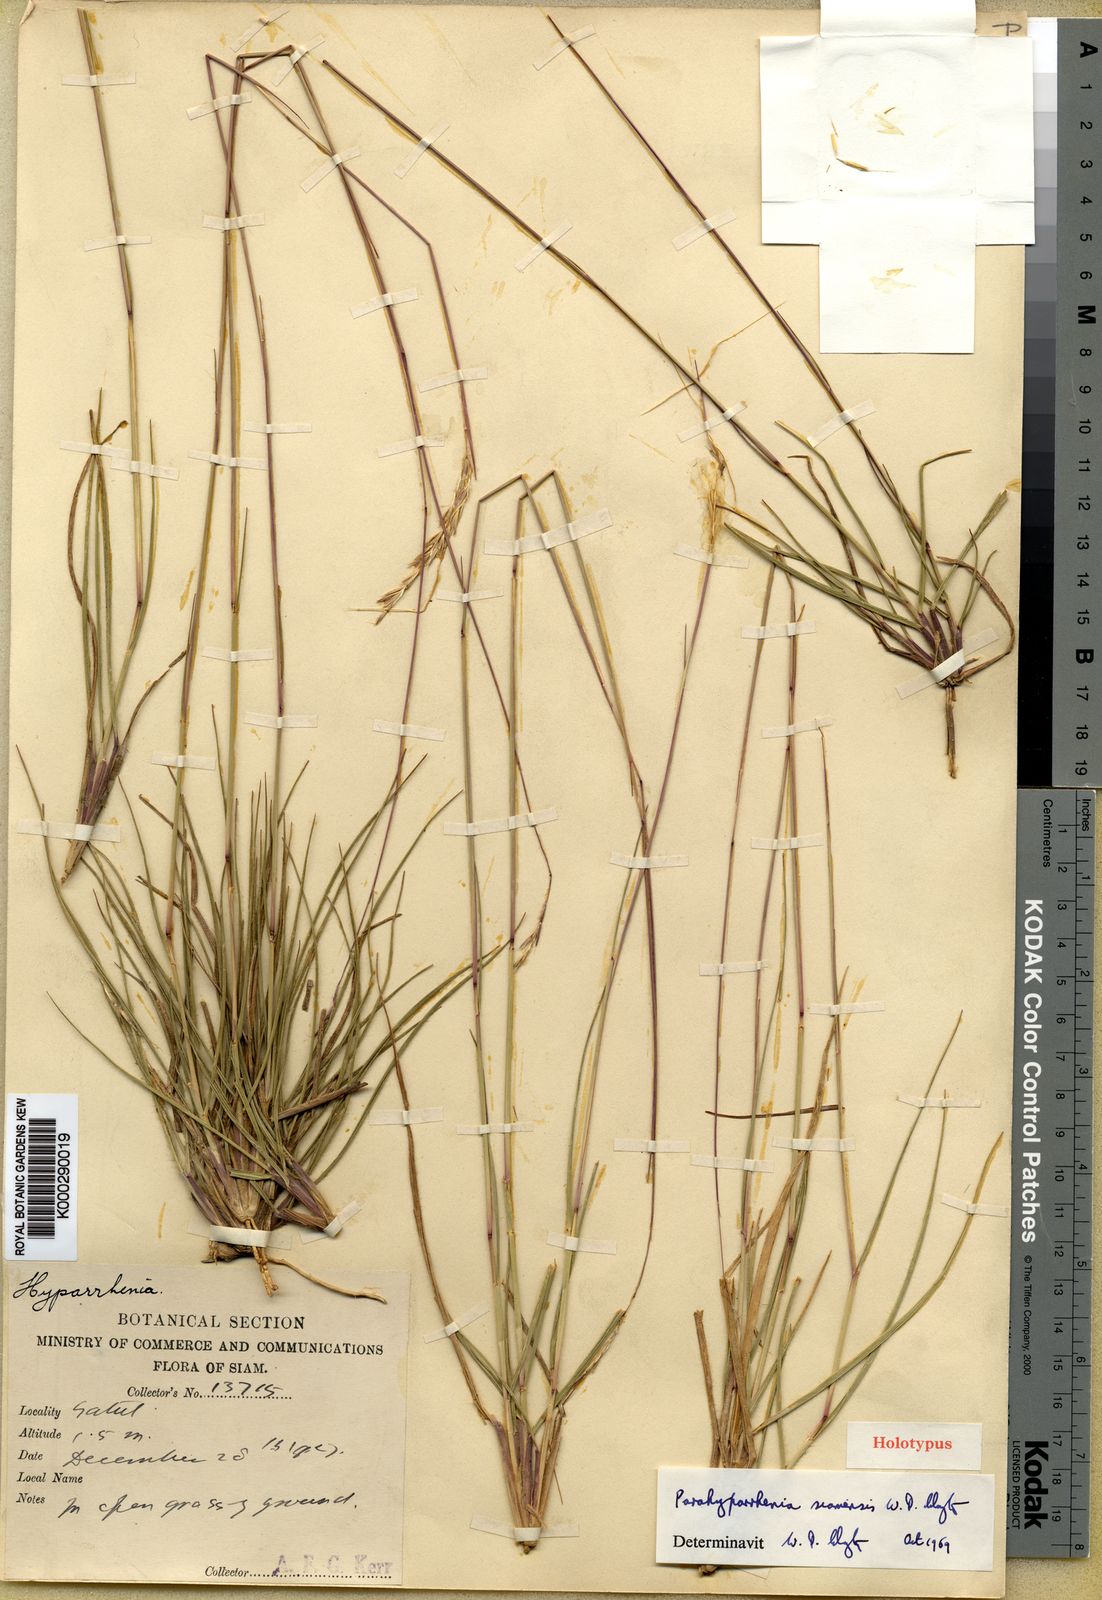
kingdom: Plantae
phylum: Tracheophyta
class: Liliopsida
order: Poales
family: Poaceae
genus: Parahyparrhenia
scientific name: Parahyparrhenia siamensis
